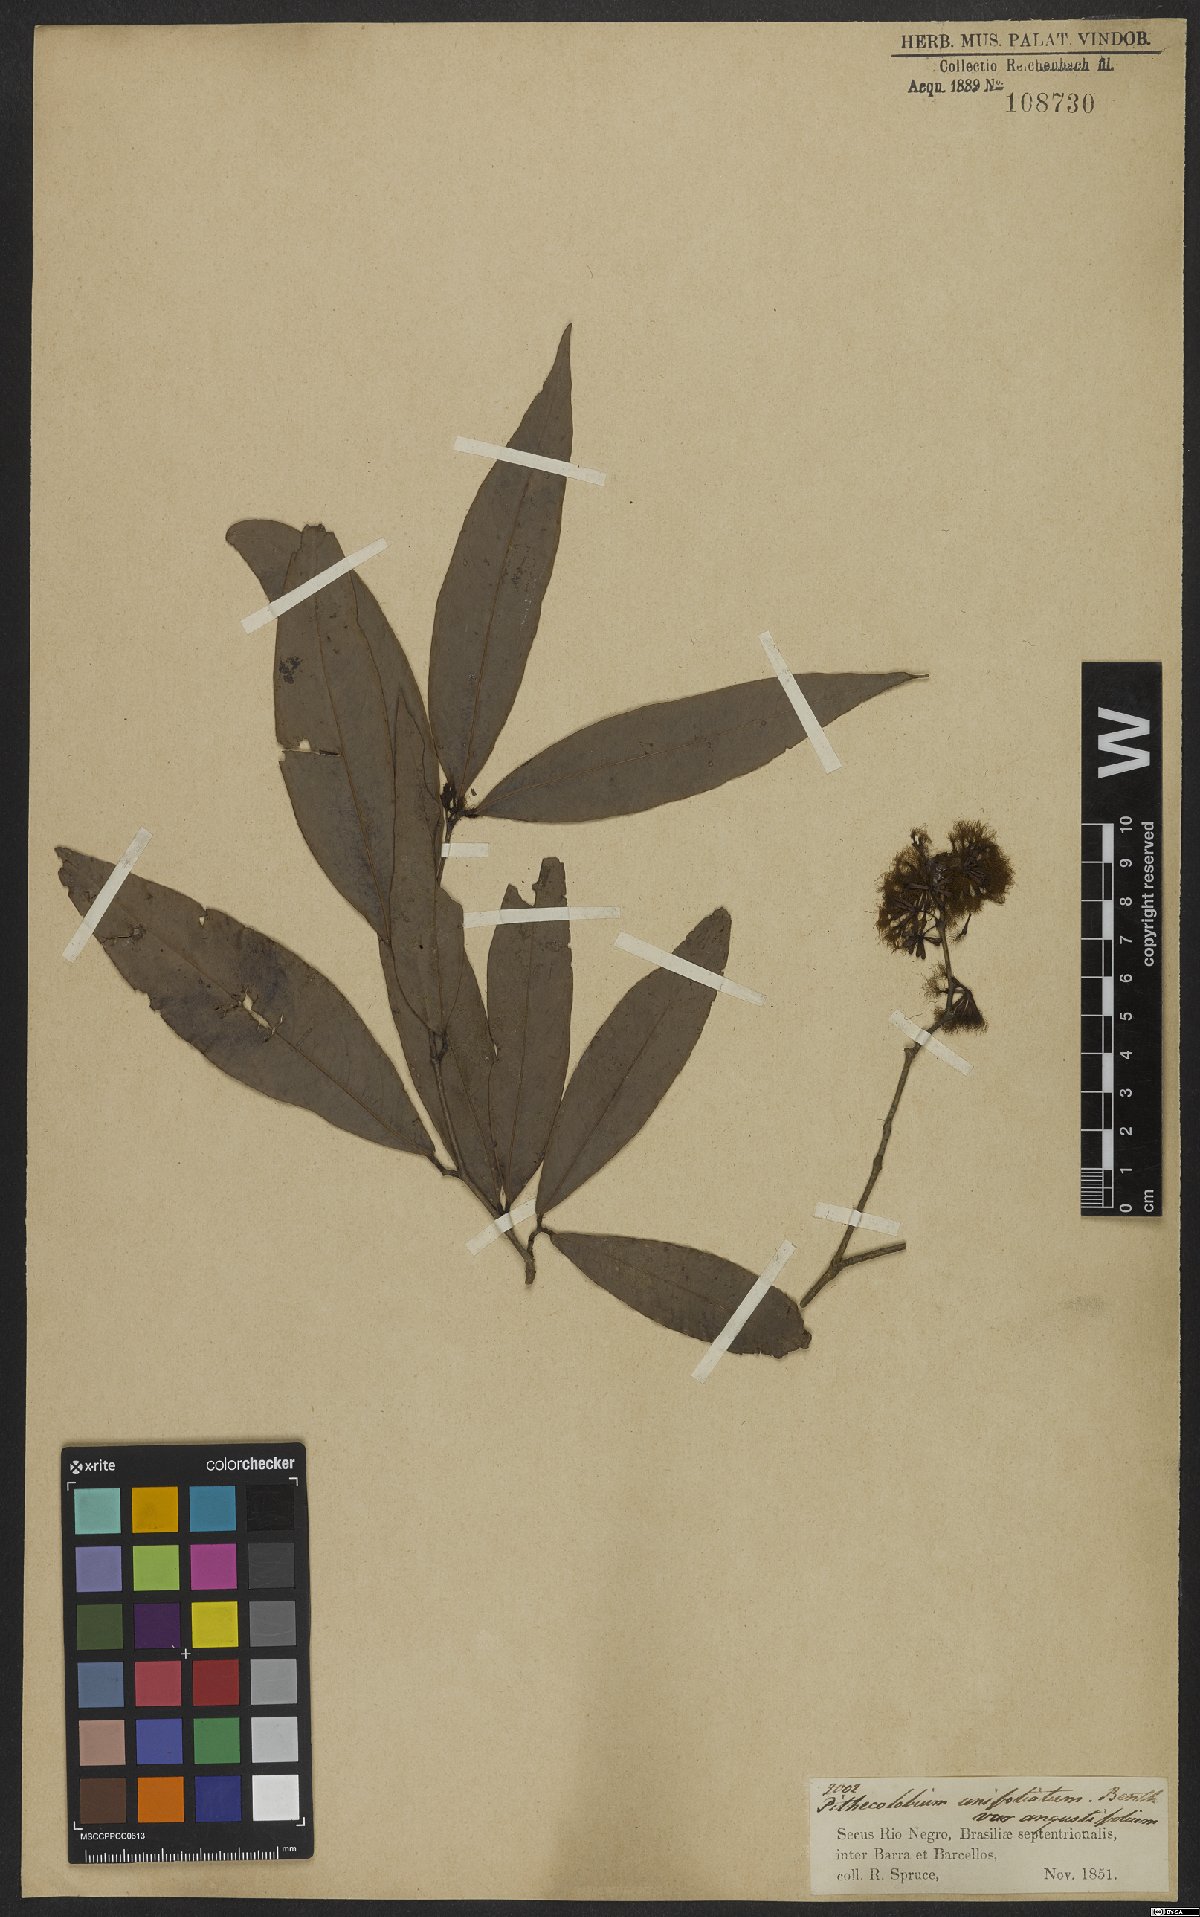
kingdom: Plantae
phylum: Tracheophyta
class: Magnoliopsida
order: Fabales
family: Fabaceae
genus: Zygia
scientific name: Zygia unifoliolata
